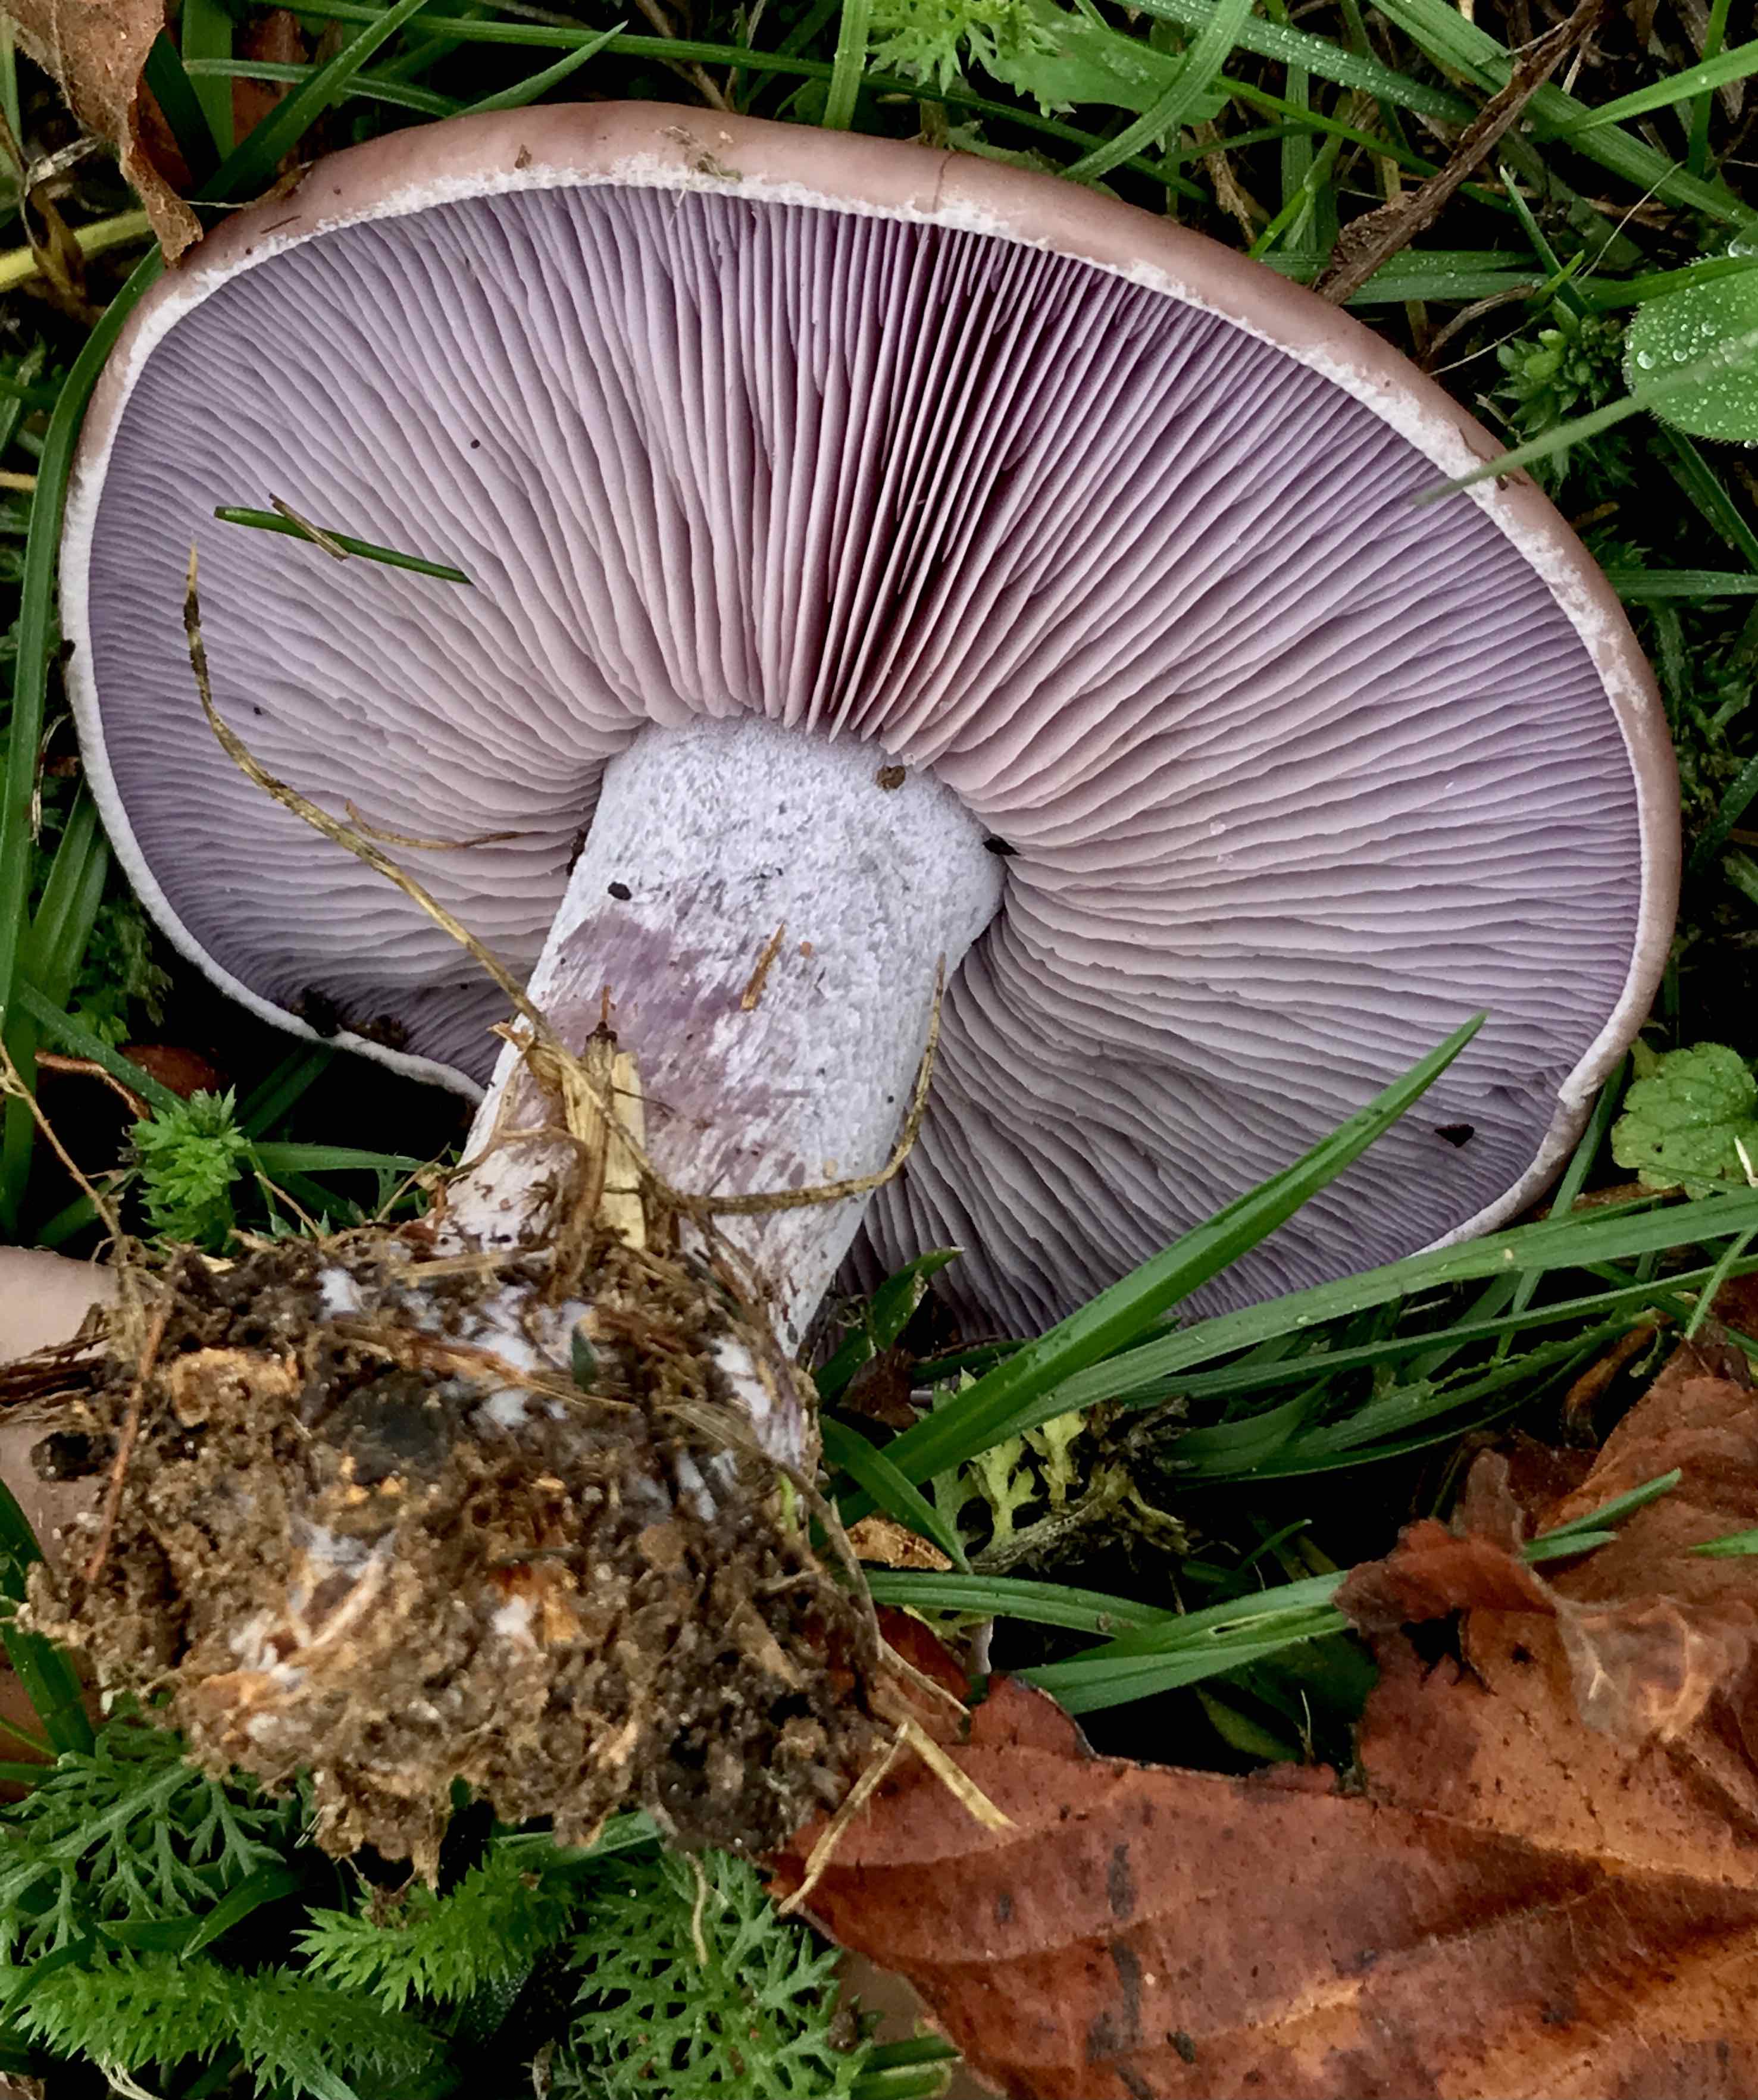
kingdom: Fungi
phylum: Basidiomycota
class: Agaricomycetes
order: Agaricales
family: Tricholomataceae
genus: Lepista
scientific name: Lepista nuda
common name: violet hekseringshat
